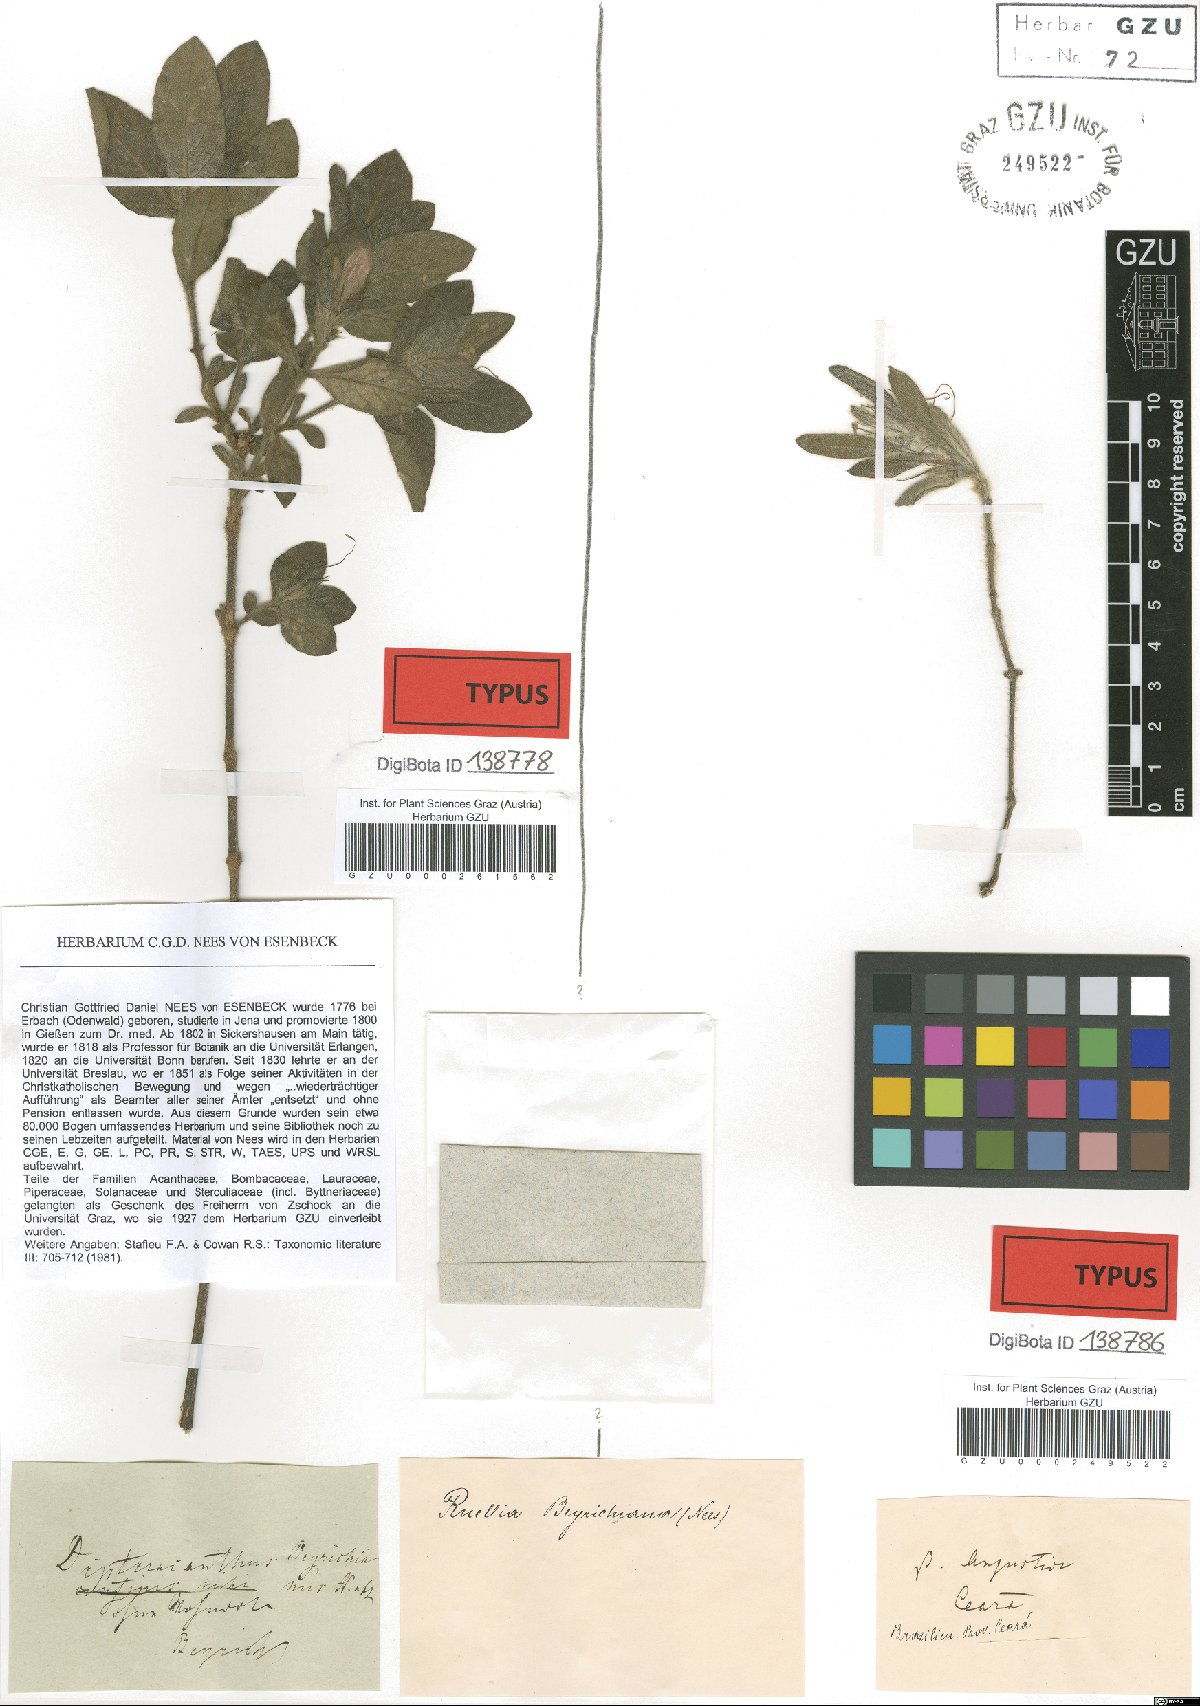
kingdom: Plantae
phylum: Tracheophyta
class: Magnoliopsida
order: Lamiales
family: Acanthaceae
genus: Ruellia
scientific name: Ruellia beyrichiana
